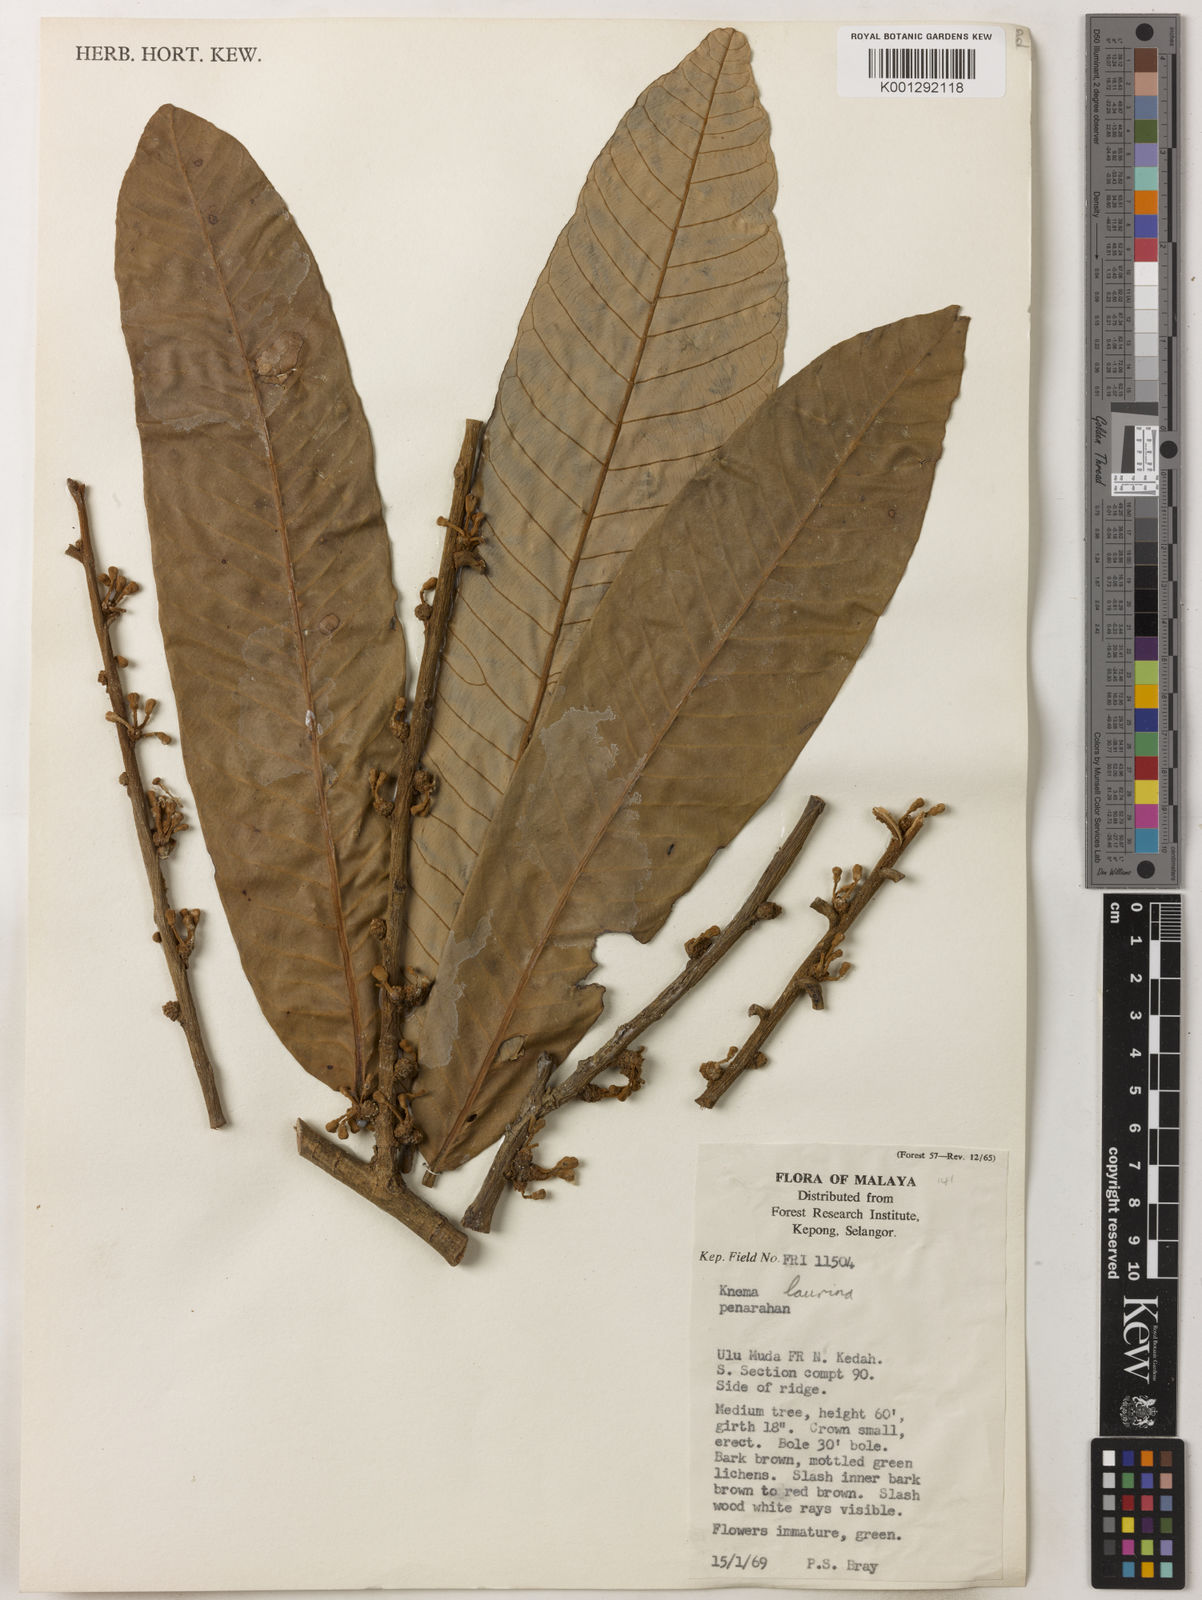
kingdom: Plantae
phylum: Tracheophyta
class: Magnoliopsida
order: Magnoliales
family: Myristicaceae
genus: Knema
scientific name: Knema laurina
